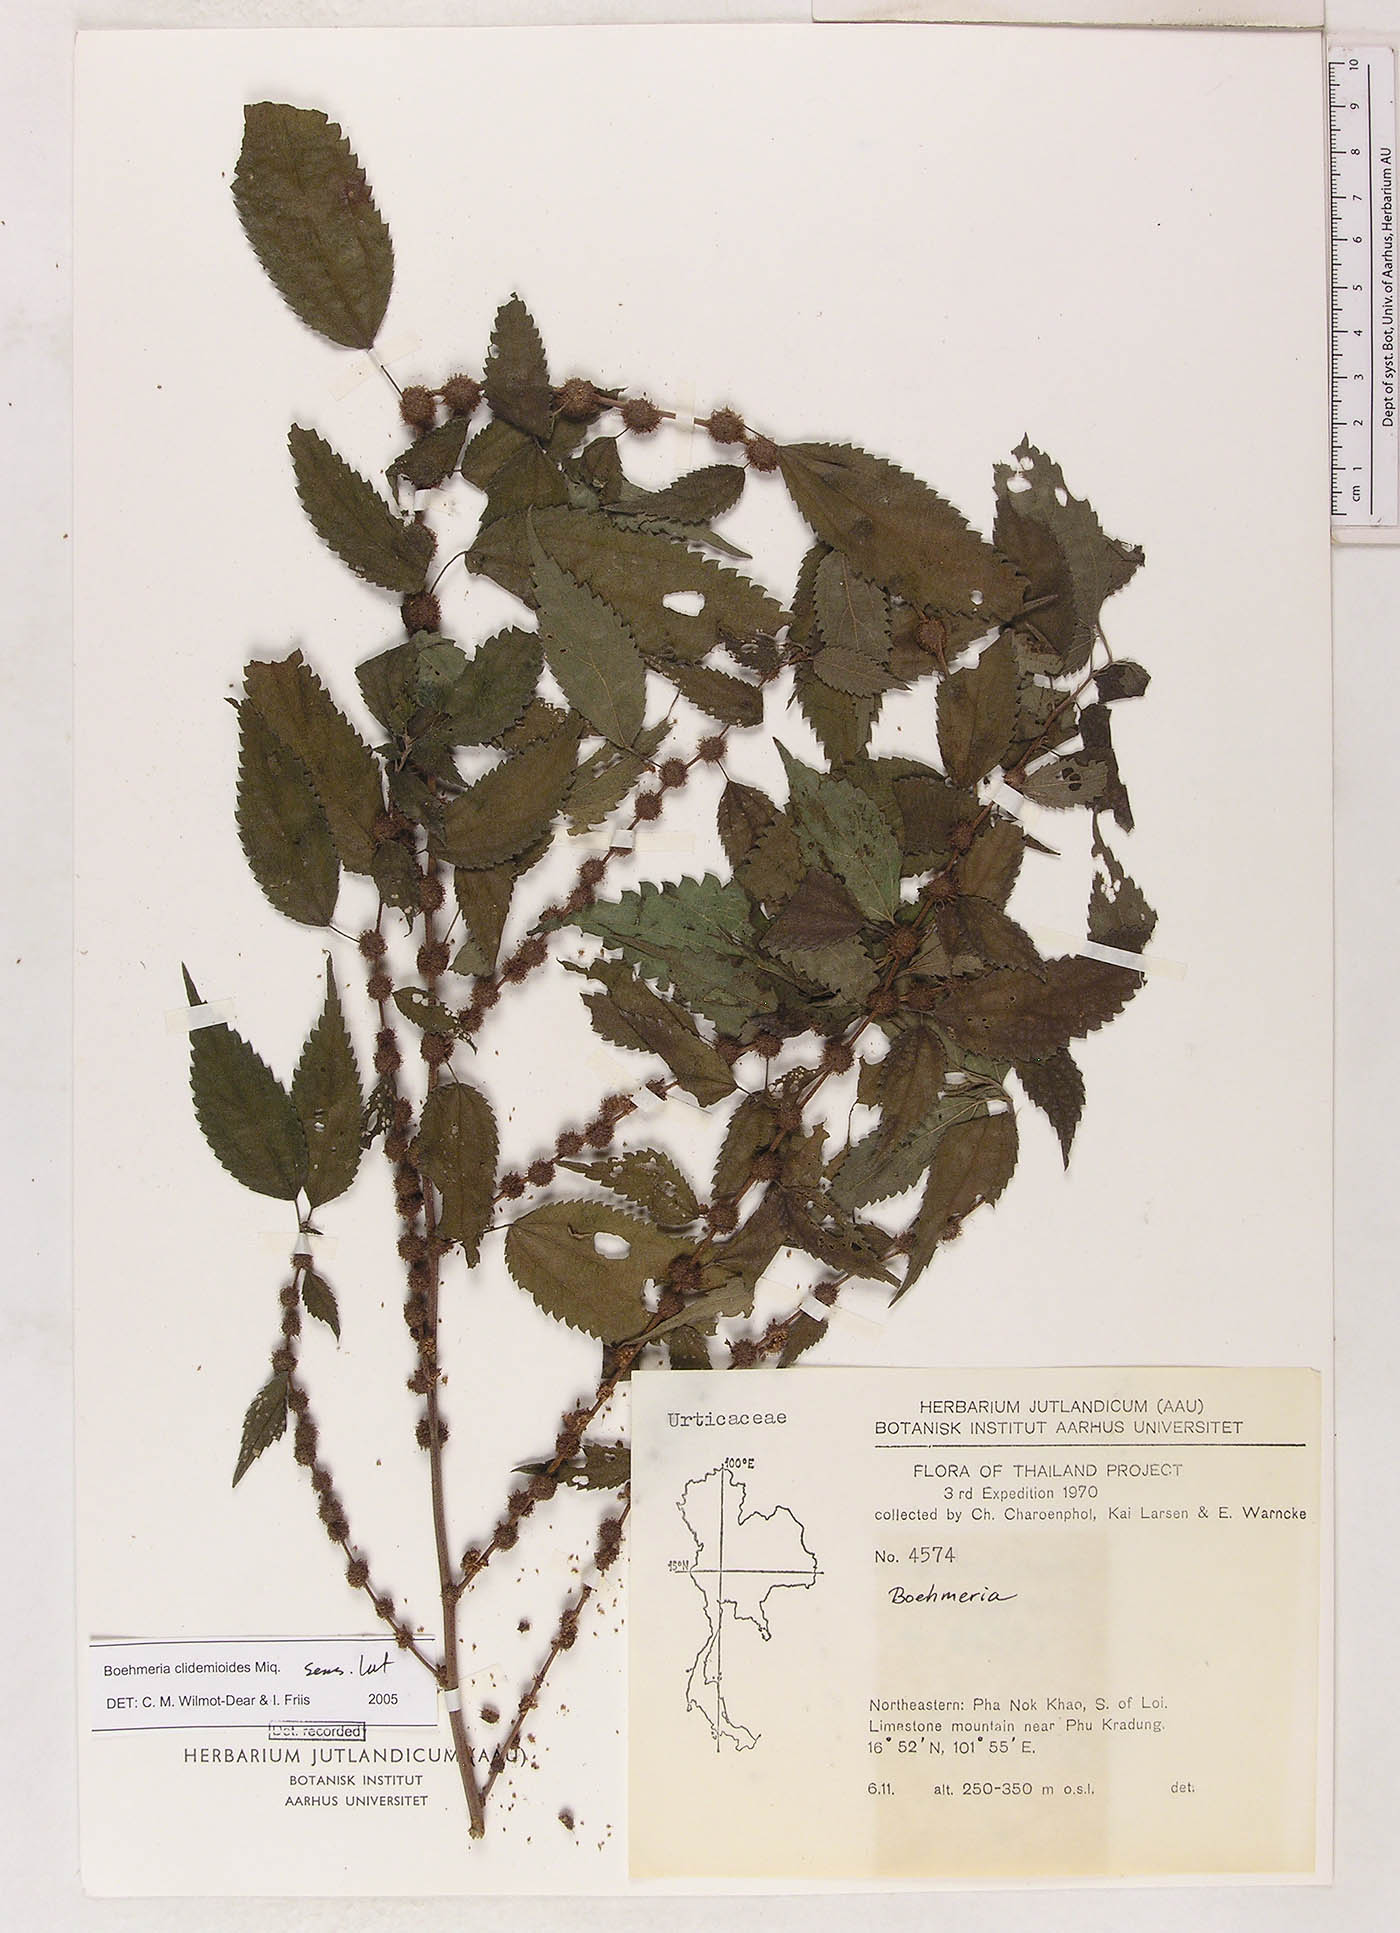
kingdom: Plantae
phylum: Tracheophyta
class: Magnoliopsida
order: Rosales
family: Urticaceae
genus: Boehmeria
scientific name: Boehmeria clidemioides
